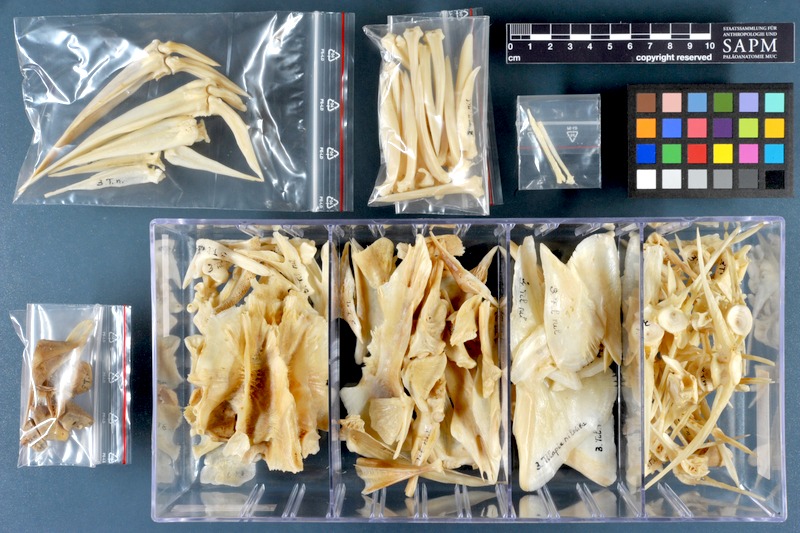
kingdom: Animalia
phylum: Chordata
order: Perciformes
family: Cichlidae
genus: Oreochromis
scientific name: Oreochromis niloticus
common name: Nile tilapia
